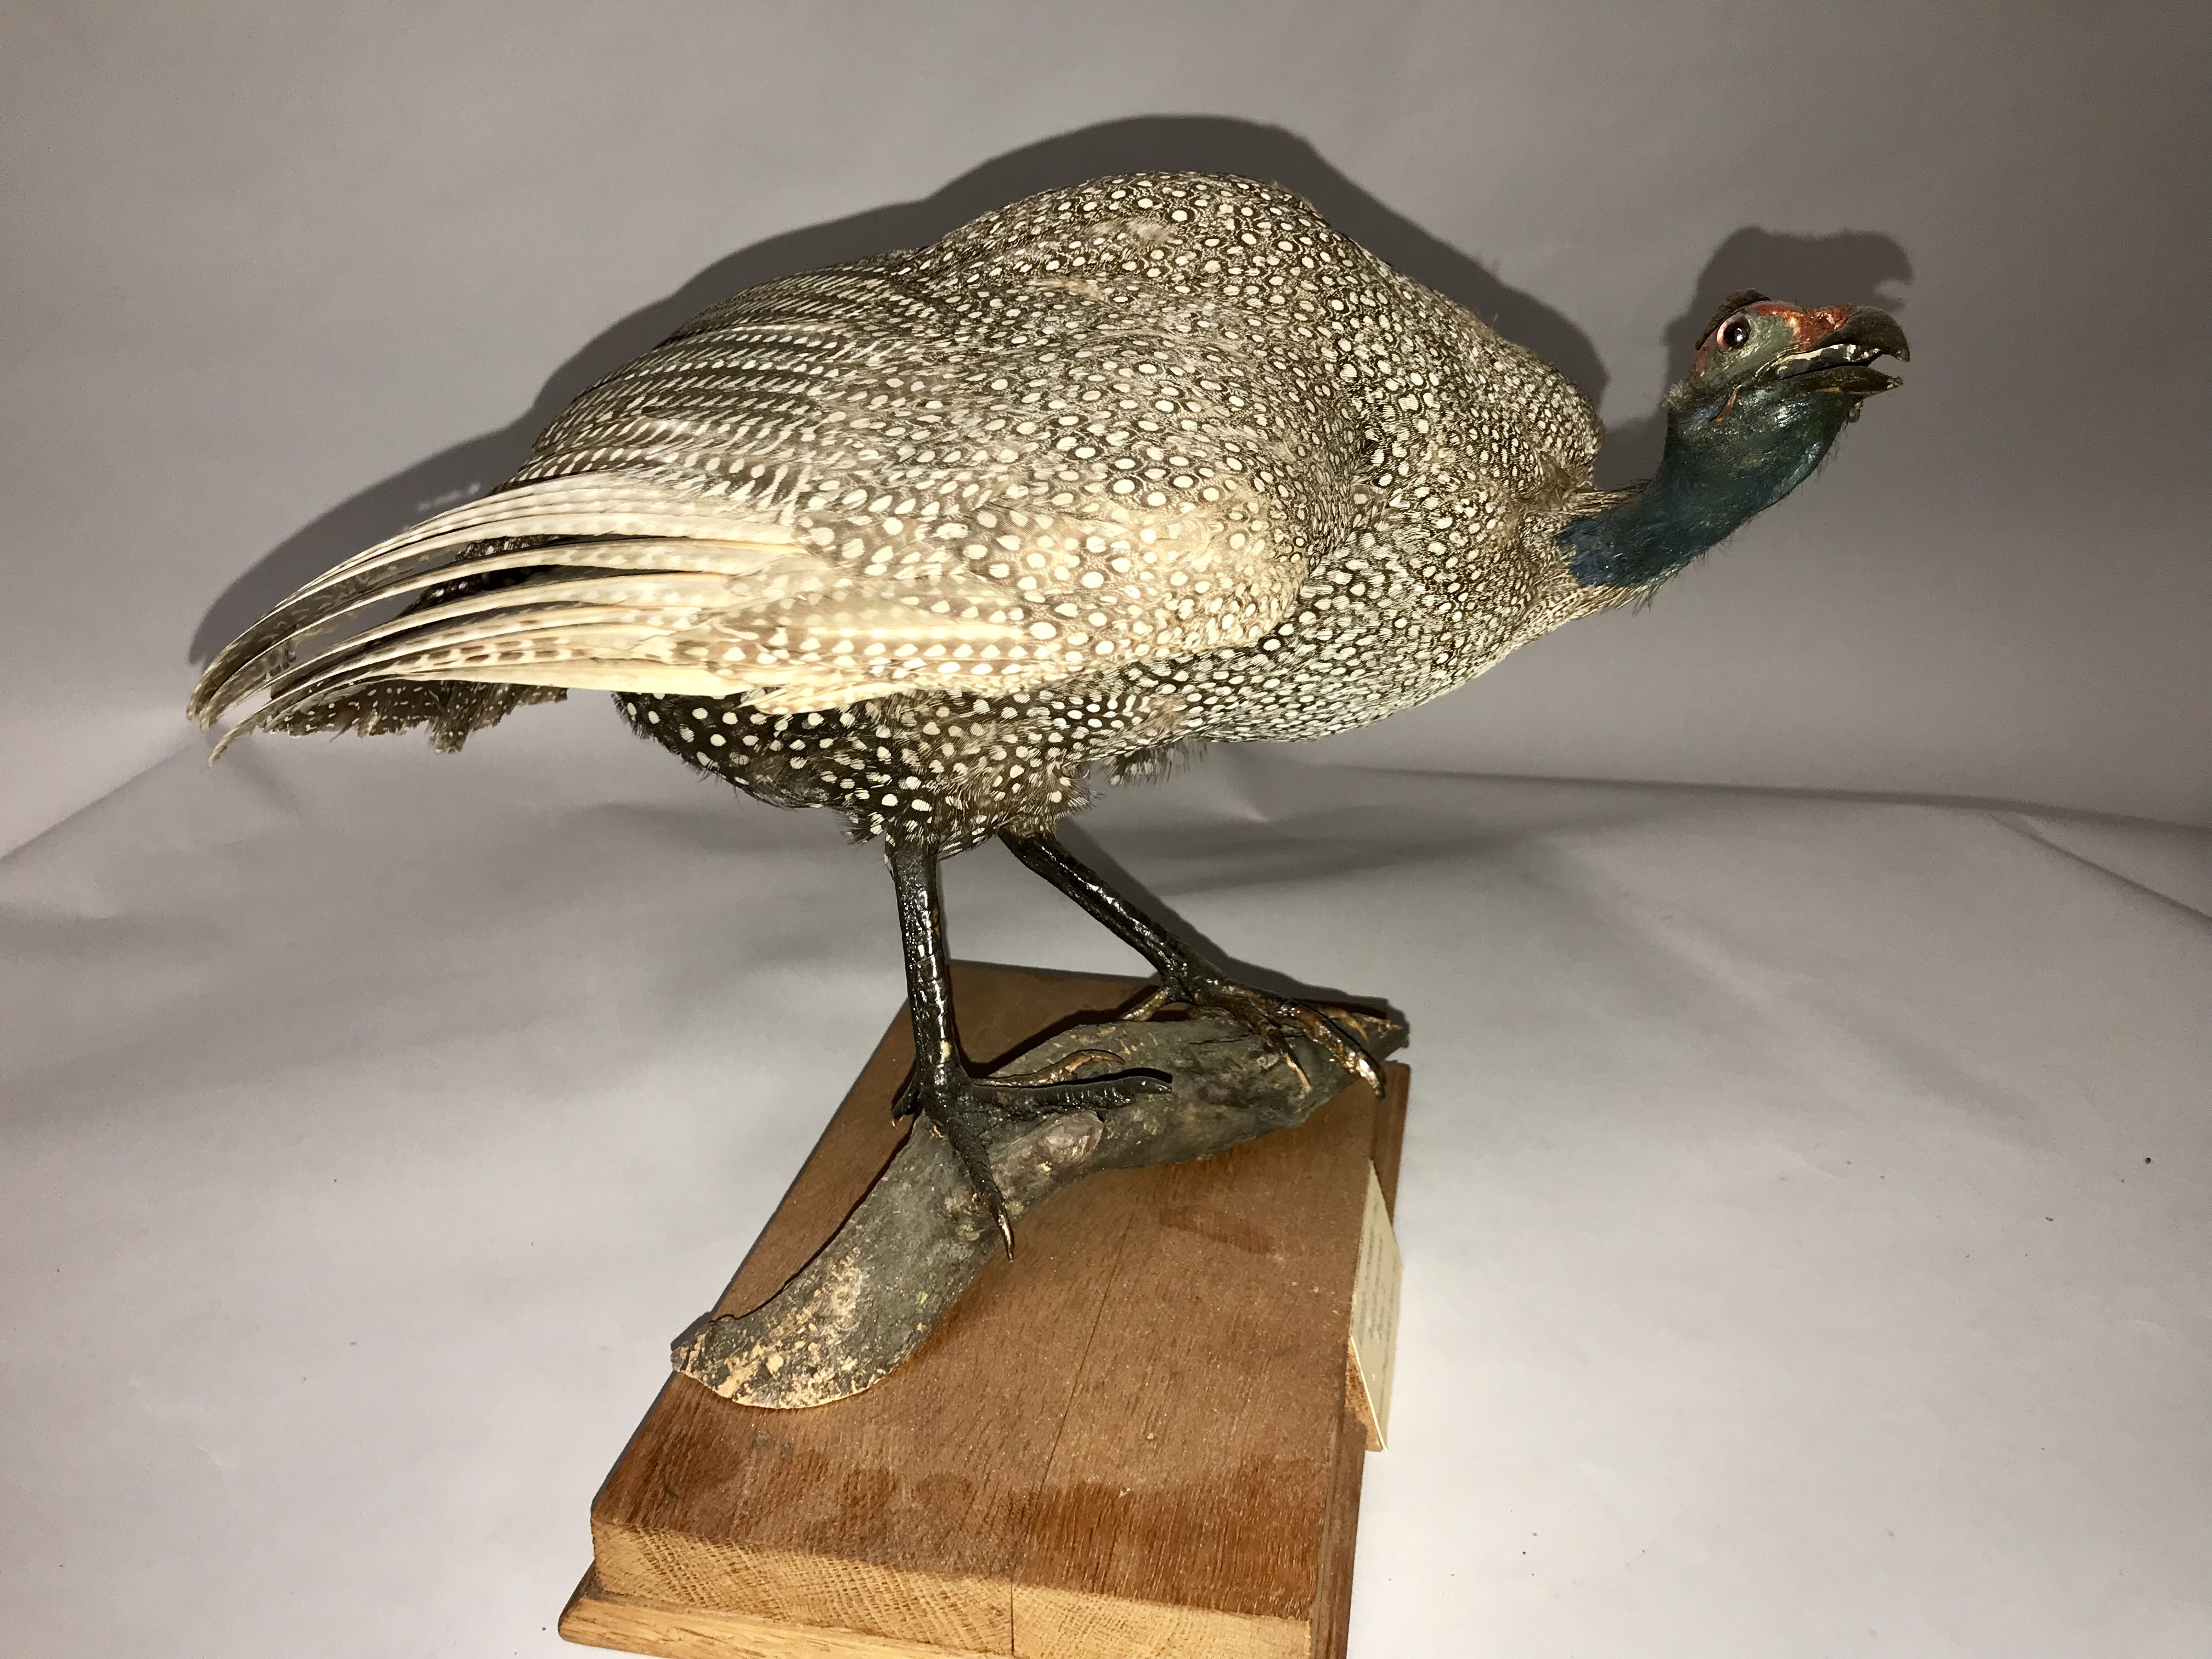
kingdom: Animalia
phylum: Chordata
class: Aves
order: Galliformes
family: Numididae
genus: Numida
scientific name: Numida meleagris
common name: Helmeted guineafowl
